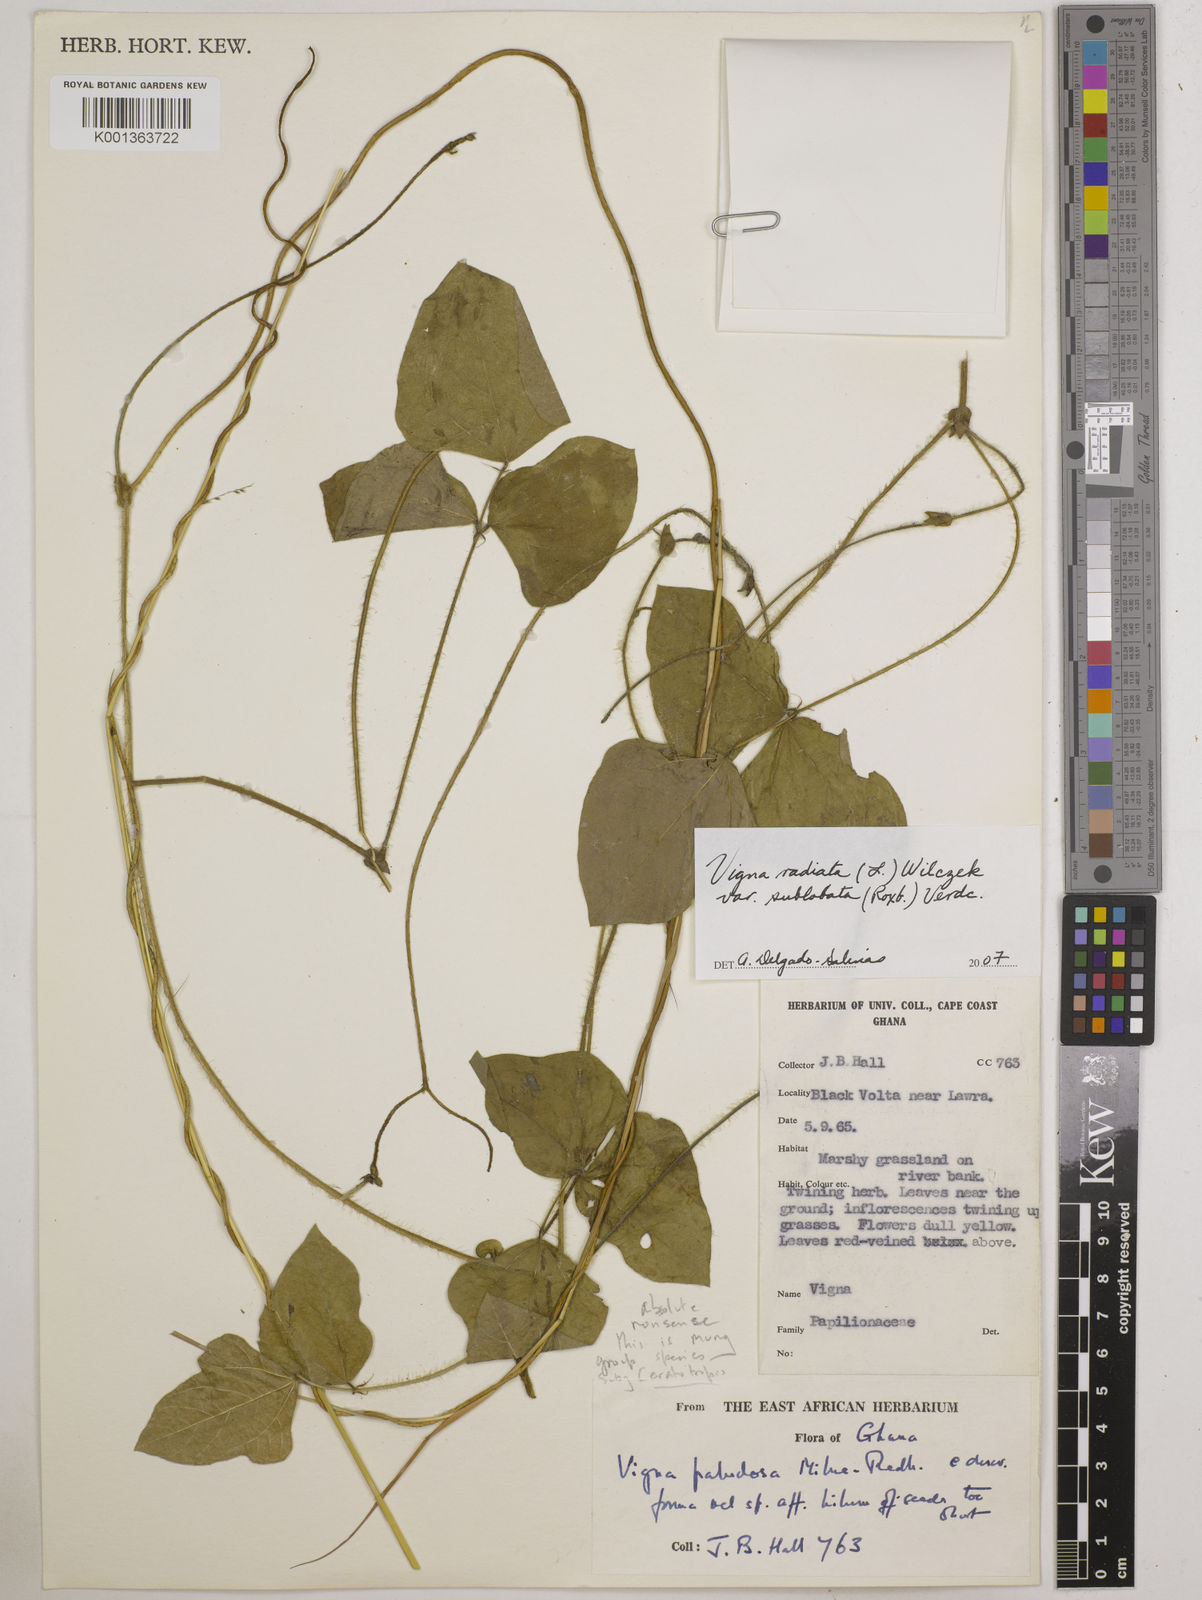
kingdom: Plantae
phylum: Tracheophyta
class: Magnoliopsida
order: Fabales
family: Fabaceae
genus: Vigna
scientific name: Vigna radiata
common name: Mung-bean
